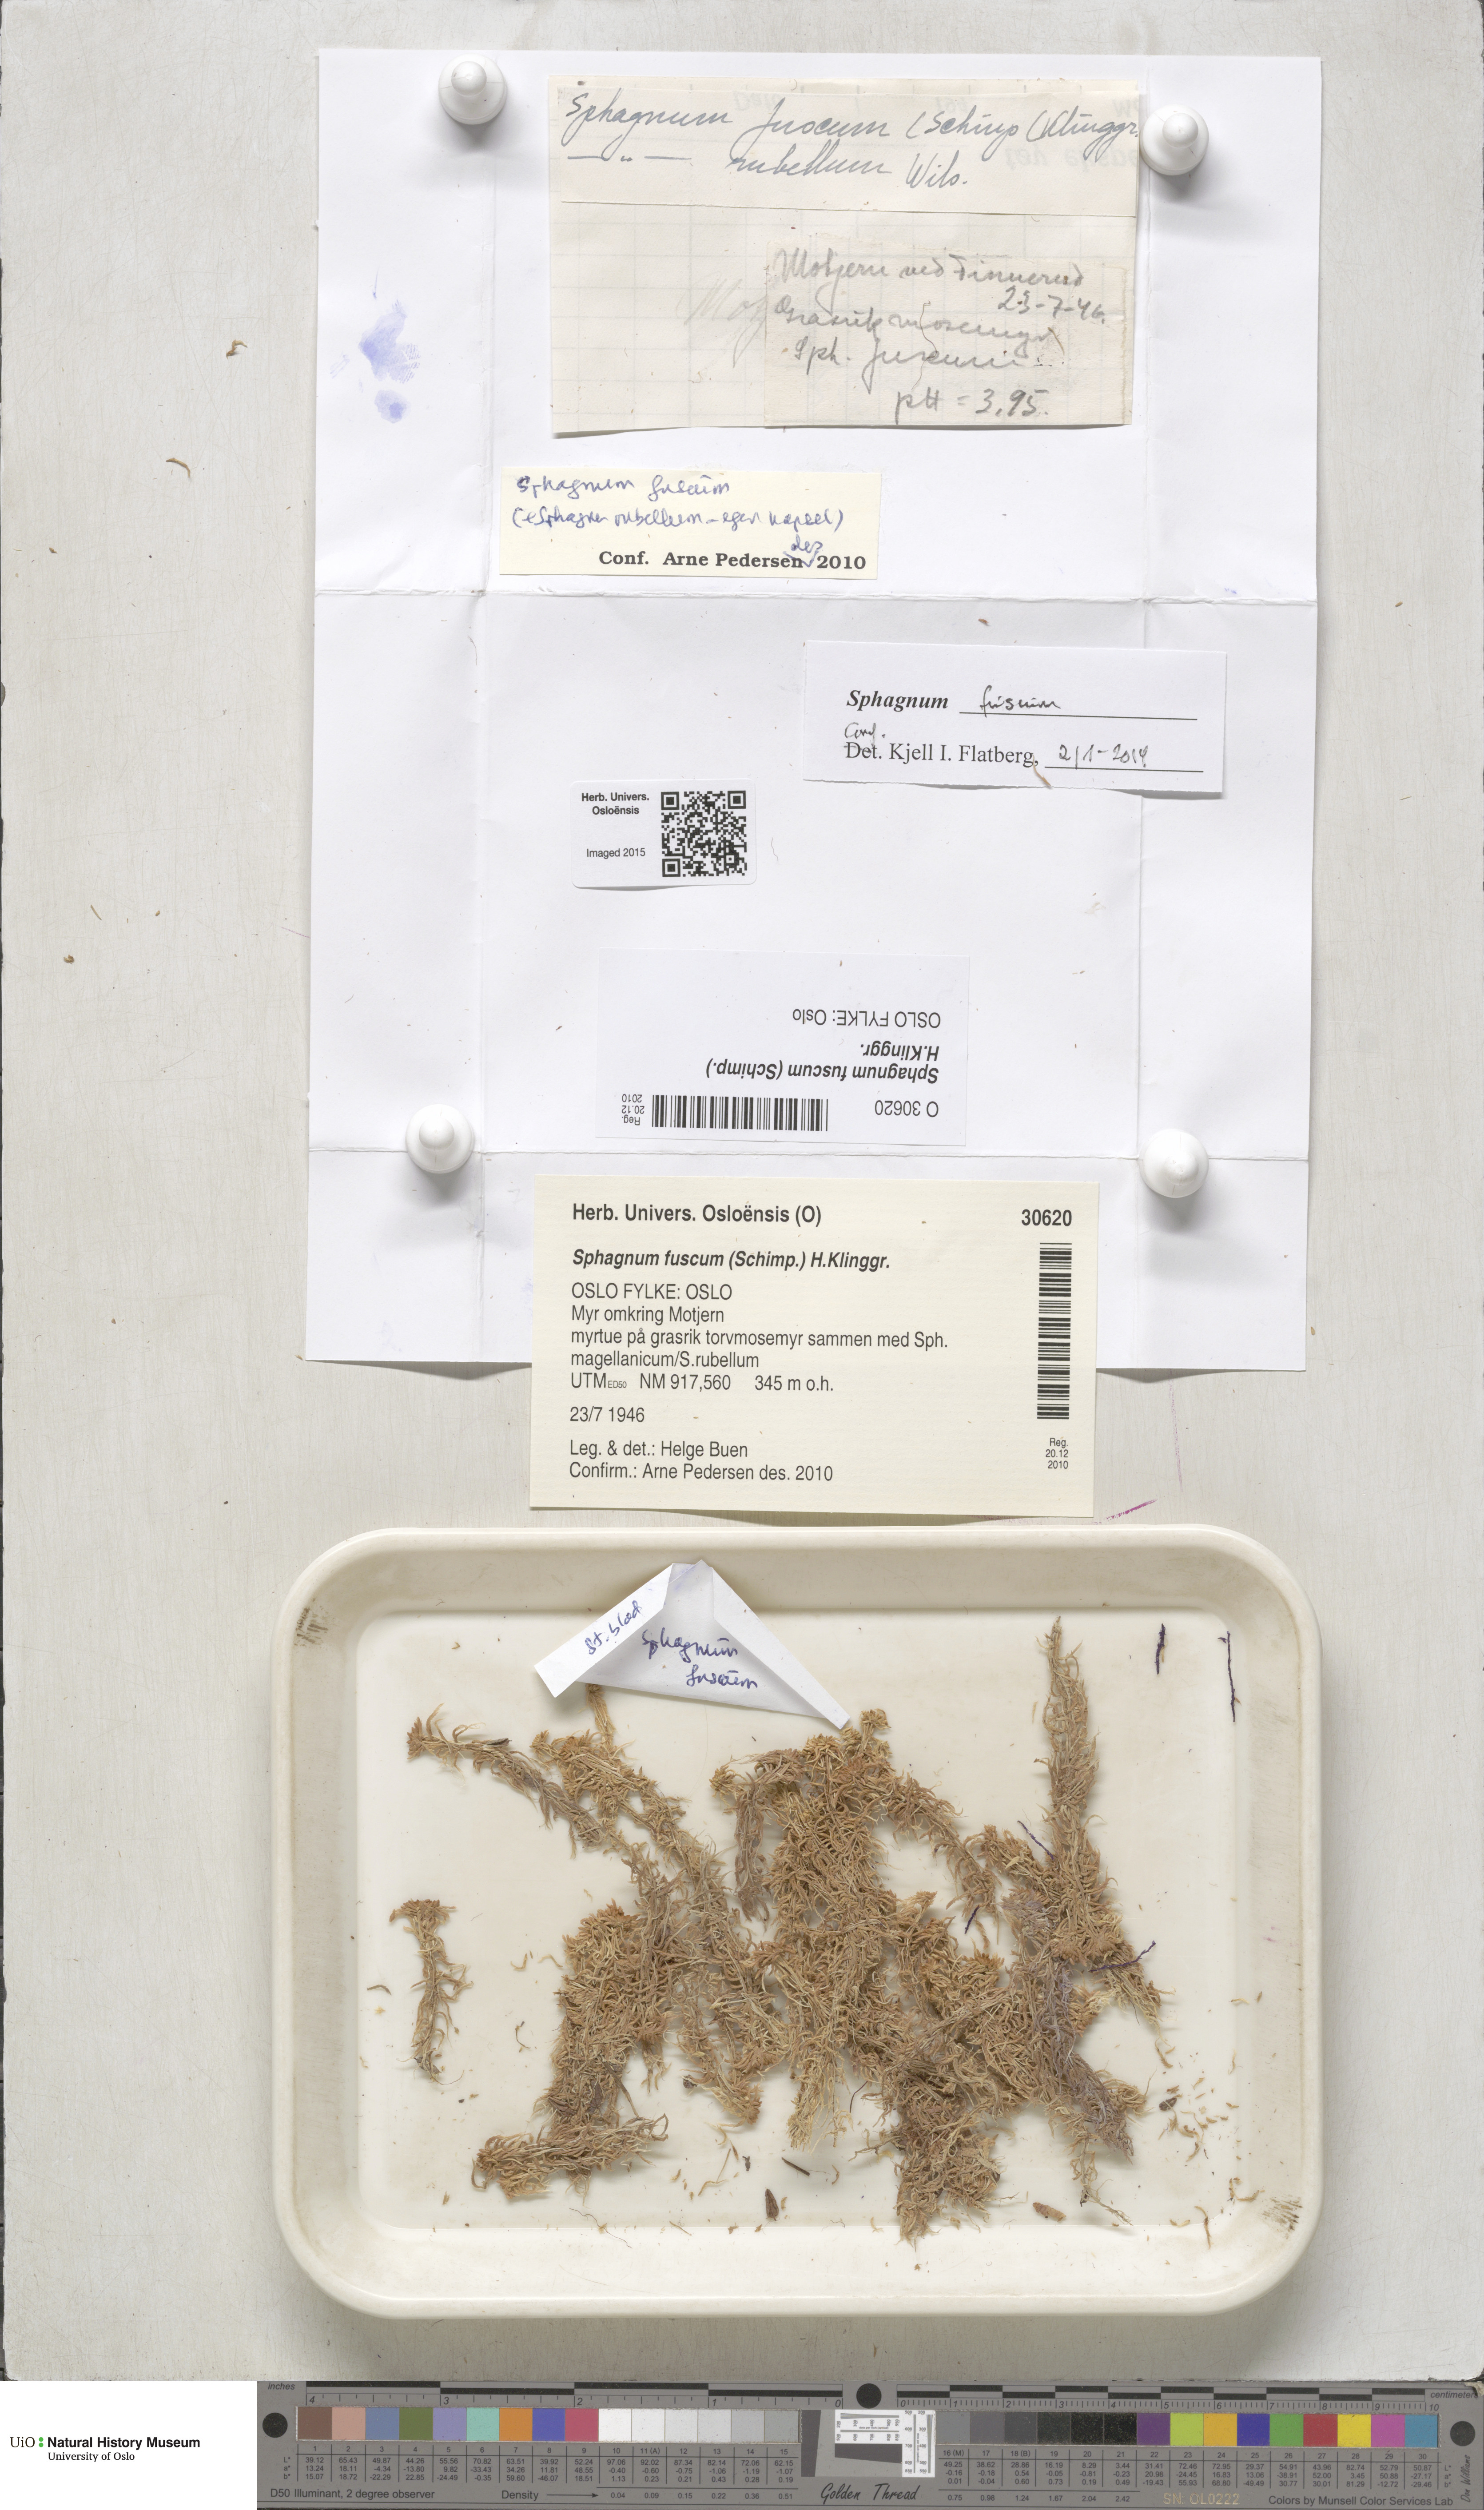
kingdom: Plantae
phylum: Bryophyta
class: Sphagnopsida
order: Sphagnales
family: Sphagnaceae
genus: Sphagnum
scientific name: Sphagnum fuscum
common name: Brown peat moss
